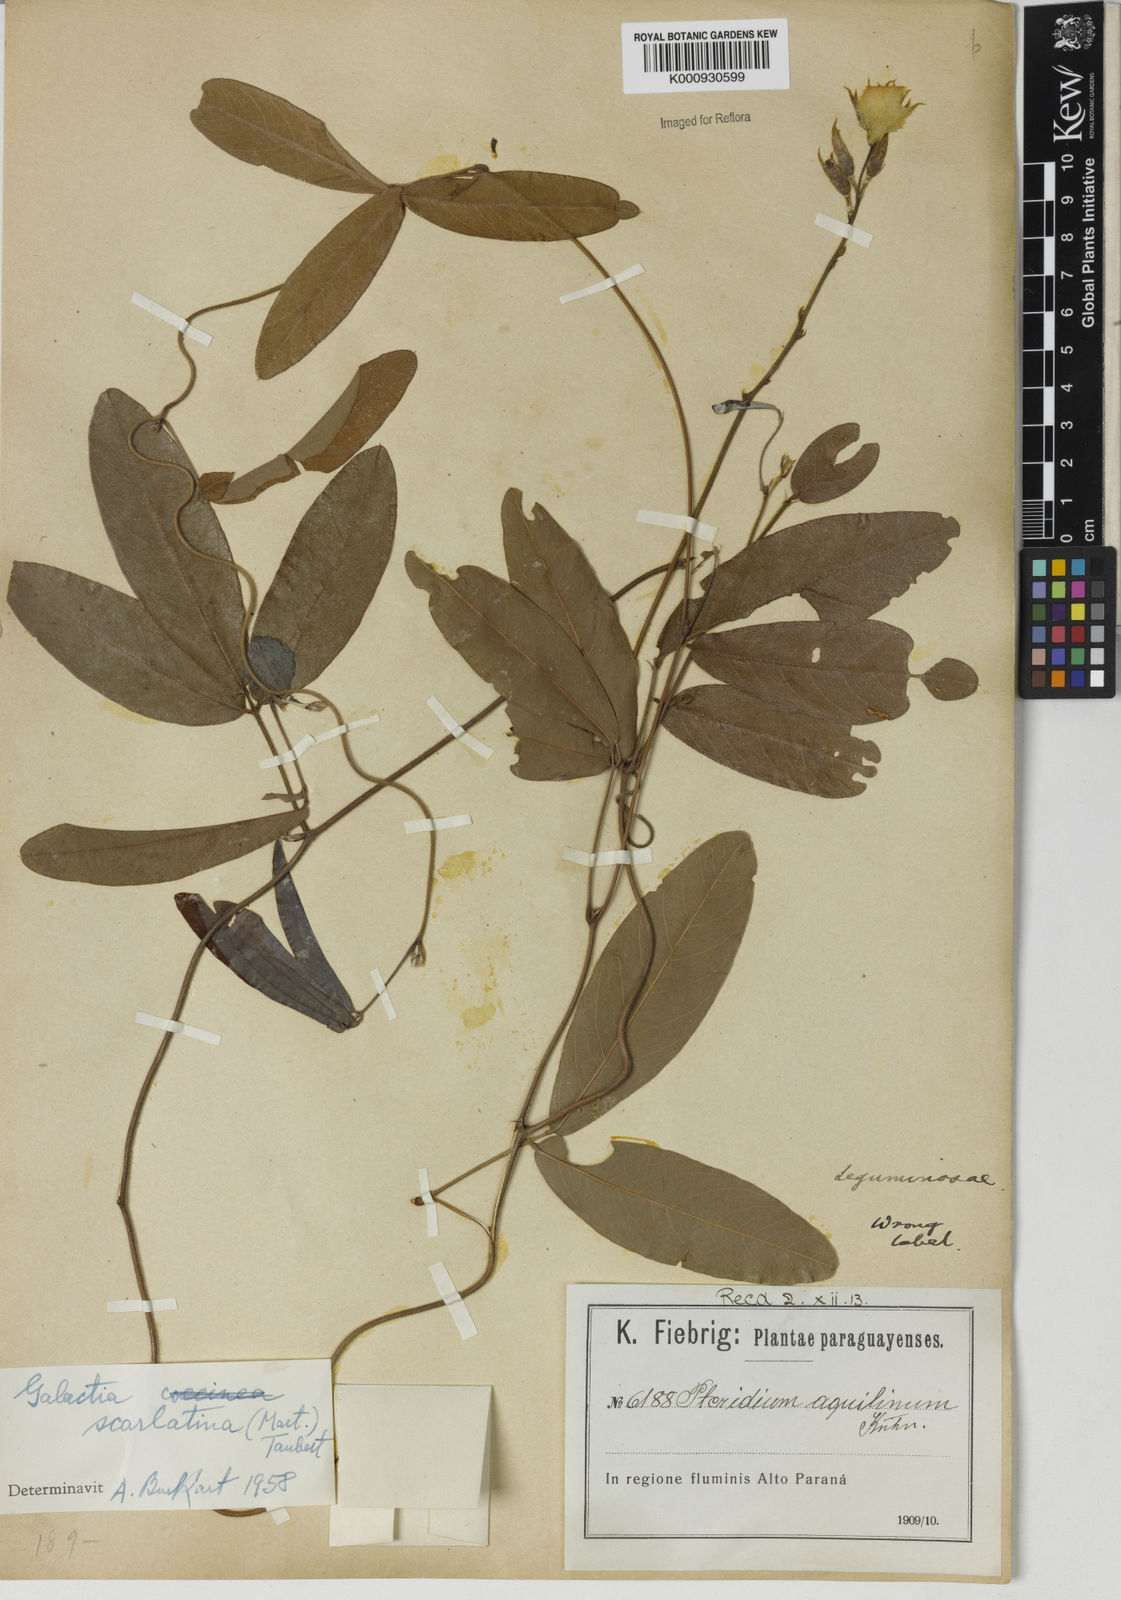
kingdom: Plantae
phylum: Tracheophyta
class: Magnoliopsida
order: Fabales
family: Fabaceae
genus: Betencourtia
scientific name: Betencourtia scarlatina
